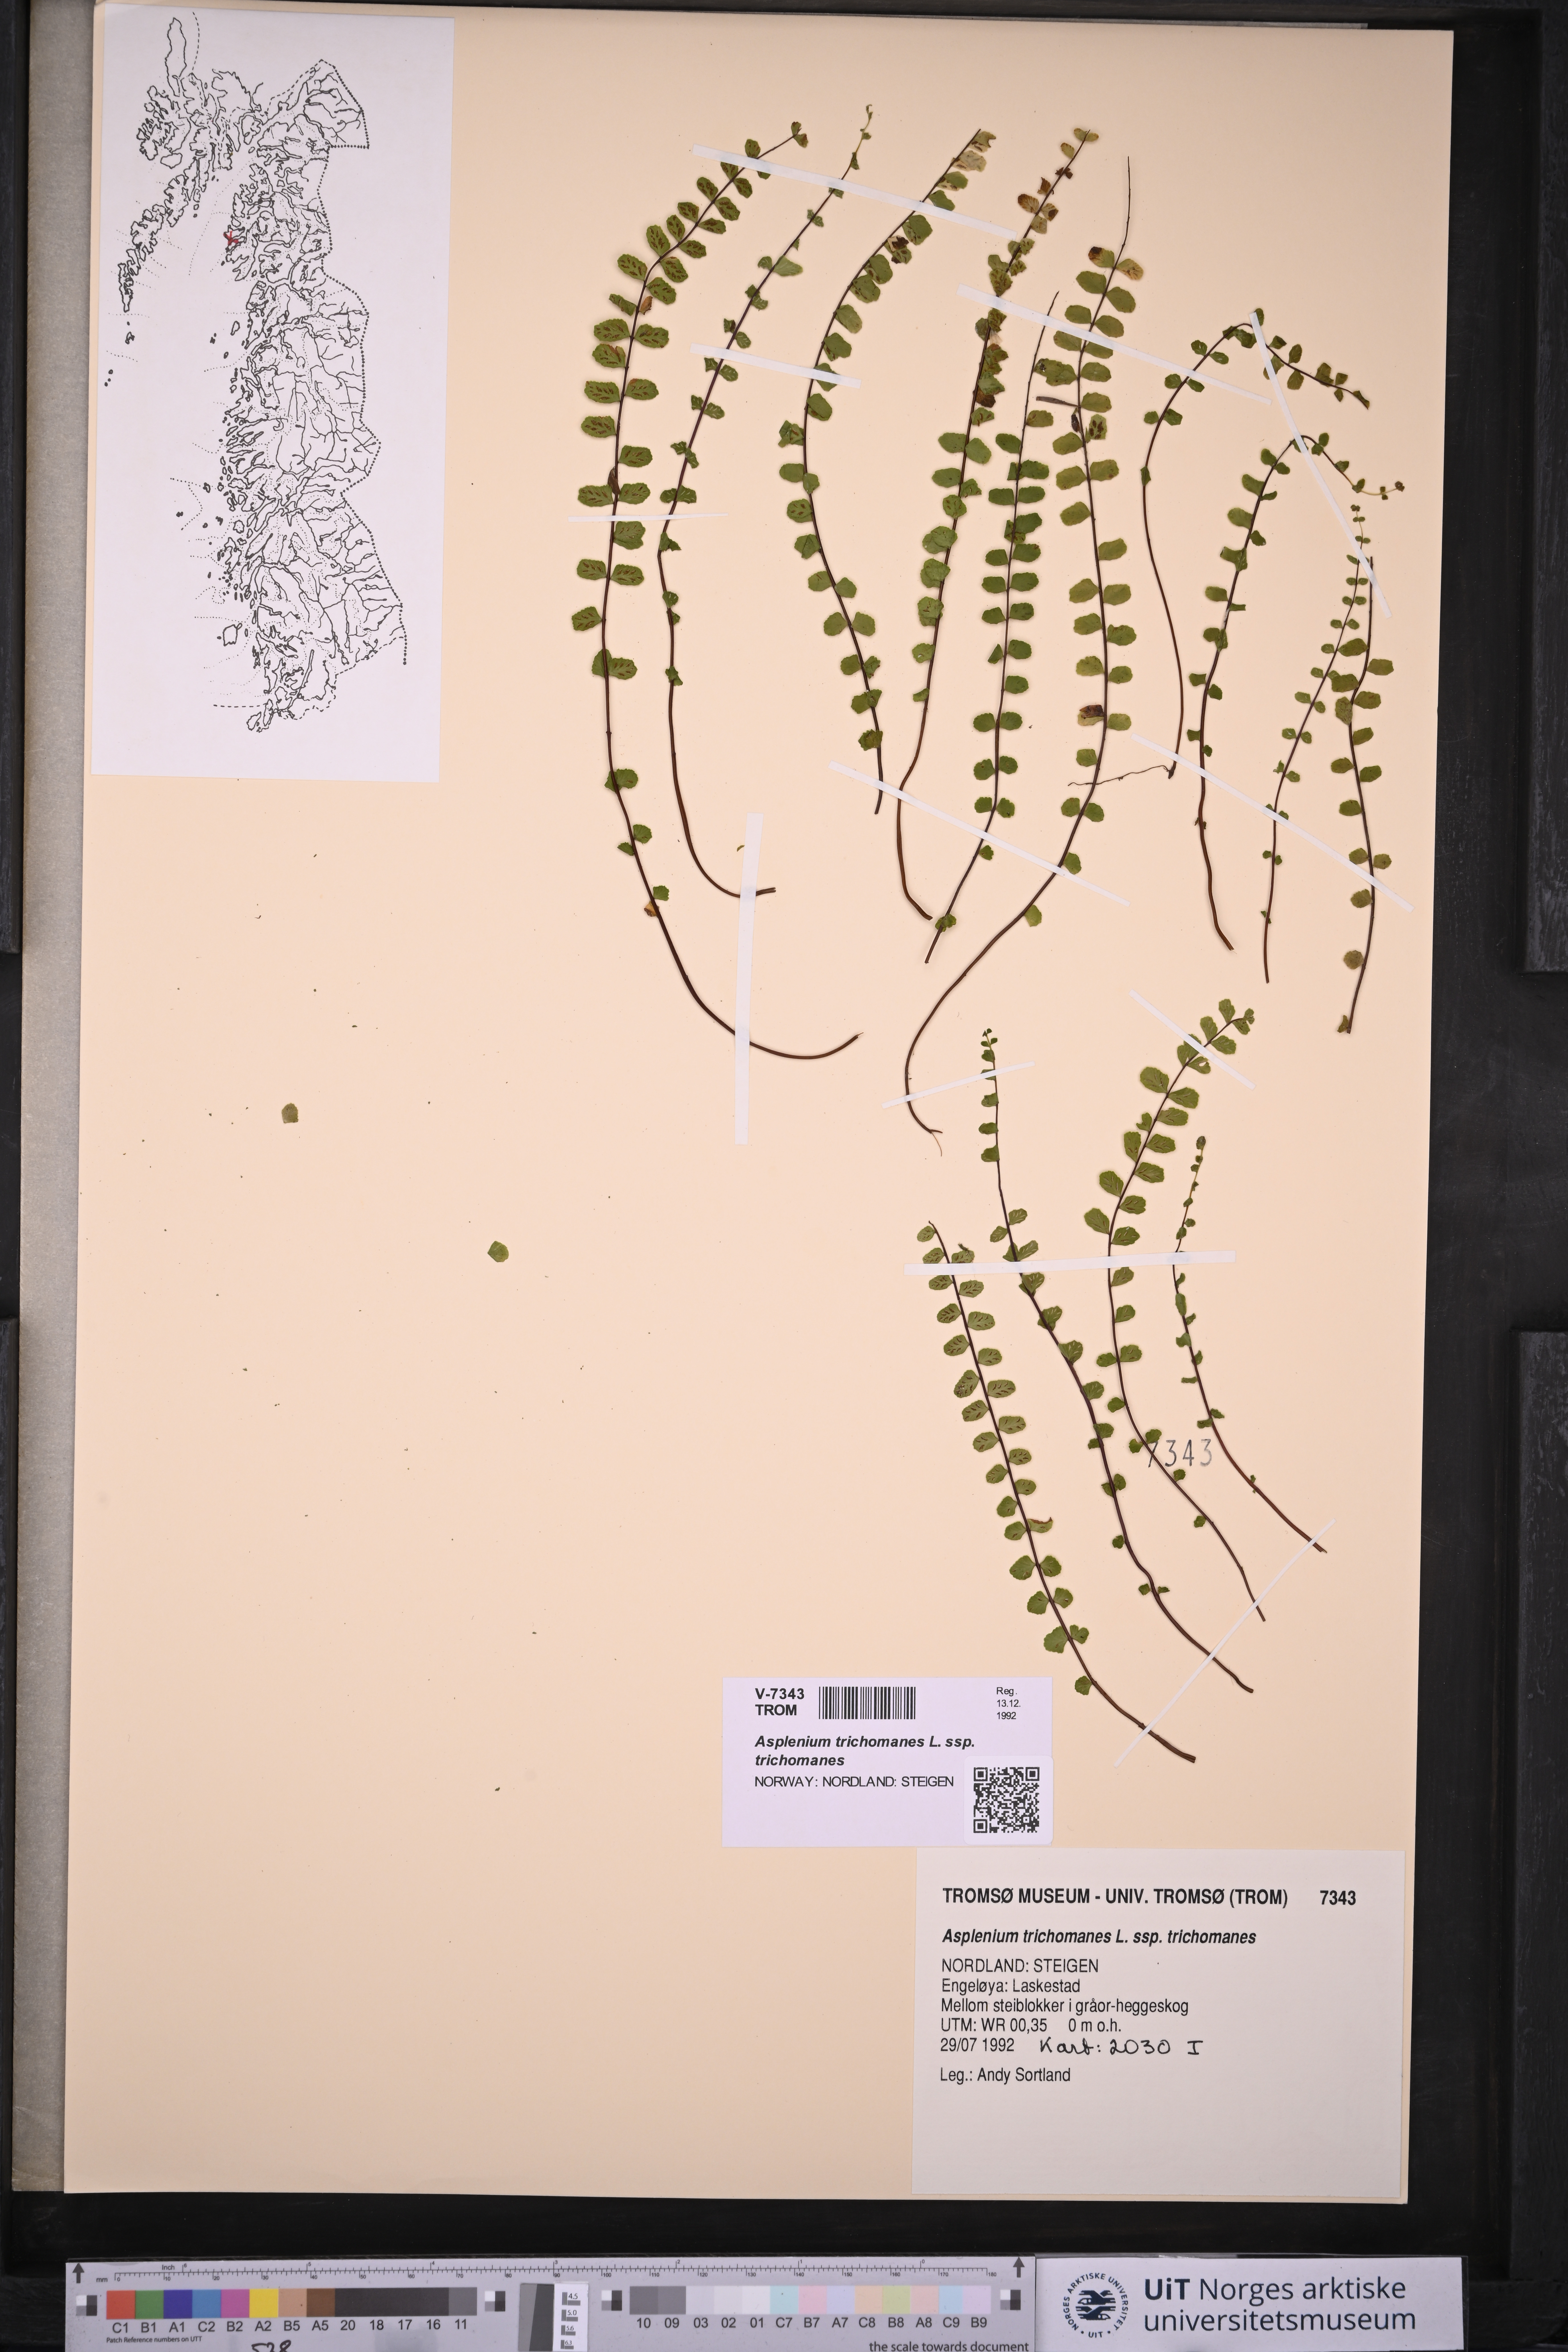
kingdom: Plantae
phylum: Tracheophyta
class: Polypodiopsida
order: Polypodiales
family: Aspleniaceae
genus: Asplenium
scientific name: Asplenium trichomanes
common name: Maidenhair spleenwort
